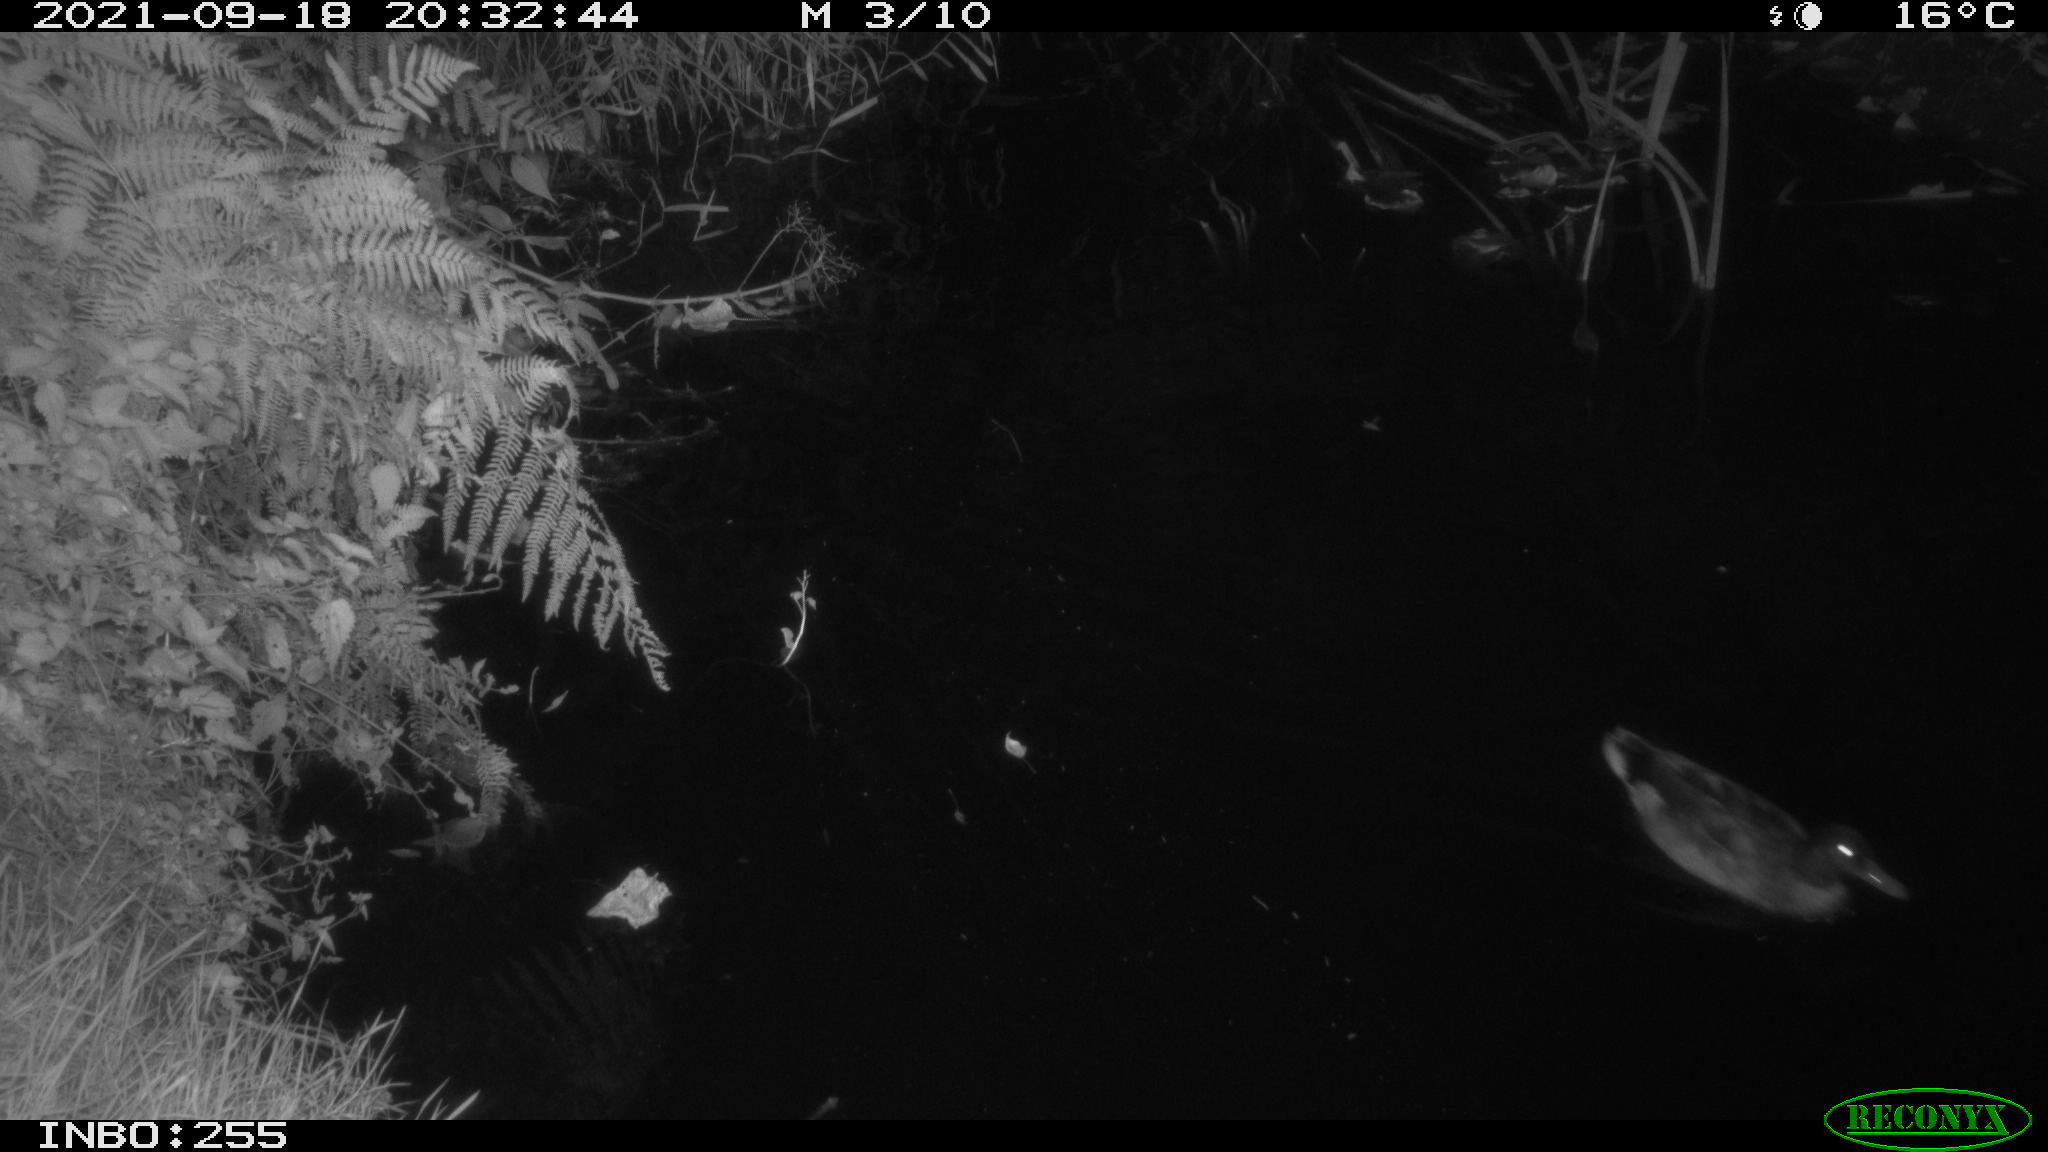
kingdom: Animalia
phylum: Chordata
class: Aves
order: Anseriformes
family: Anatidae
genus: Anas
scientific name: Anas platyrhynchos
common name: Mallard
